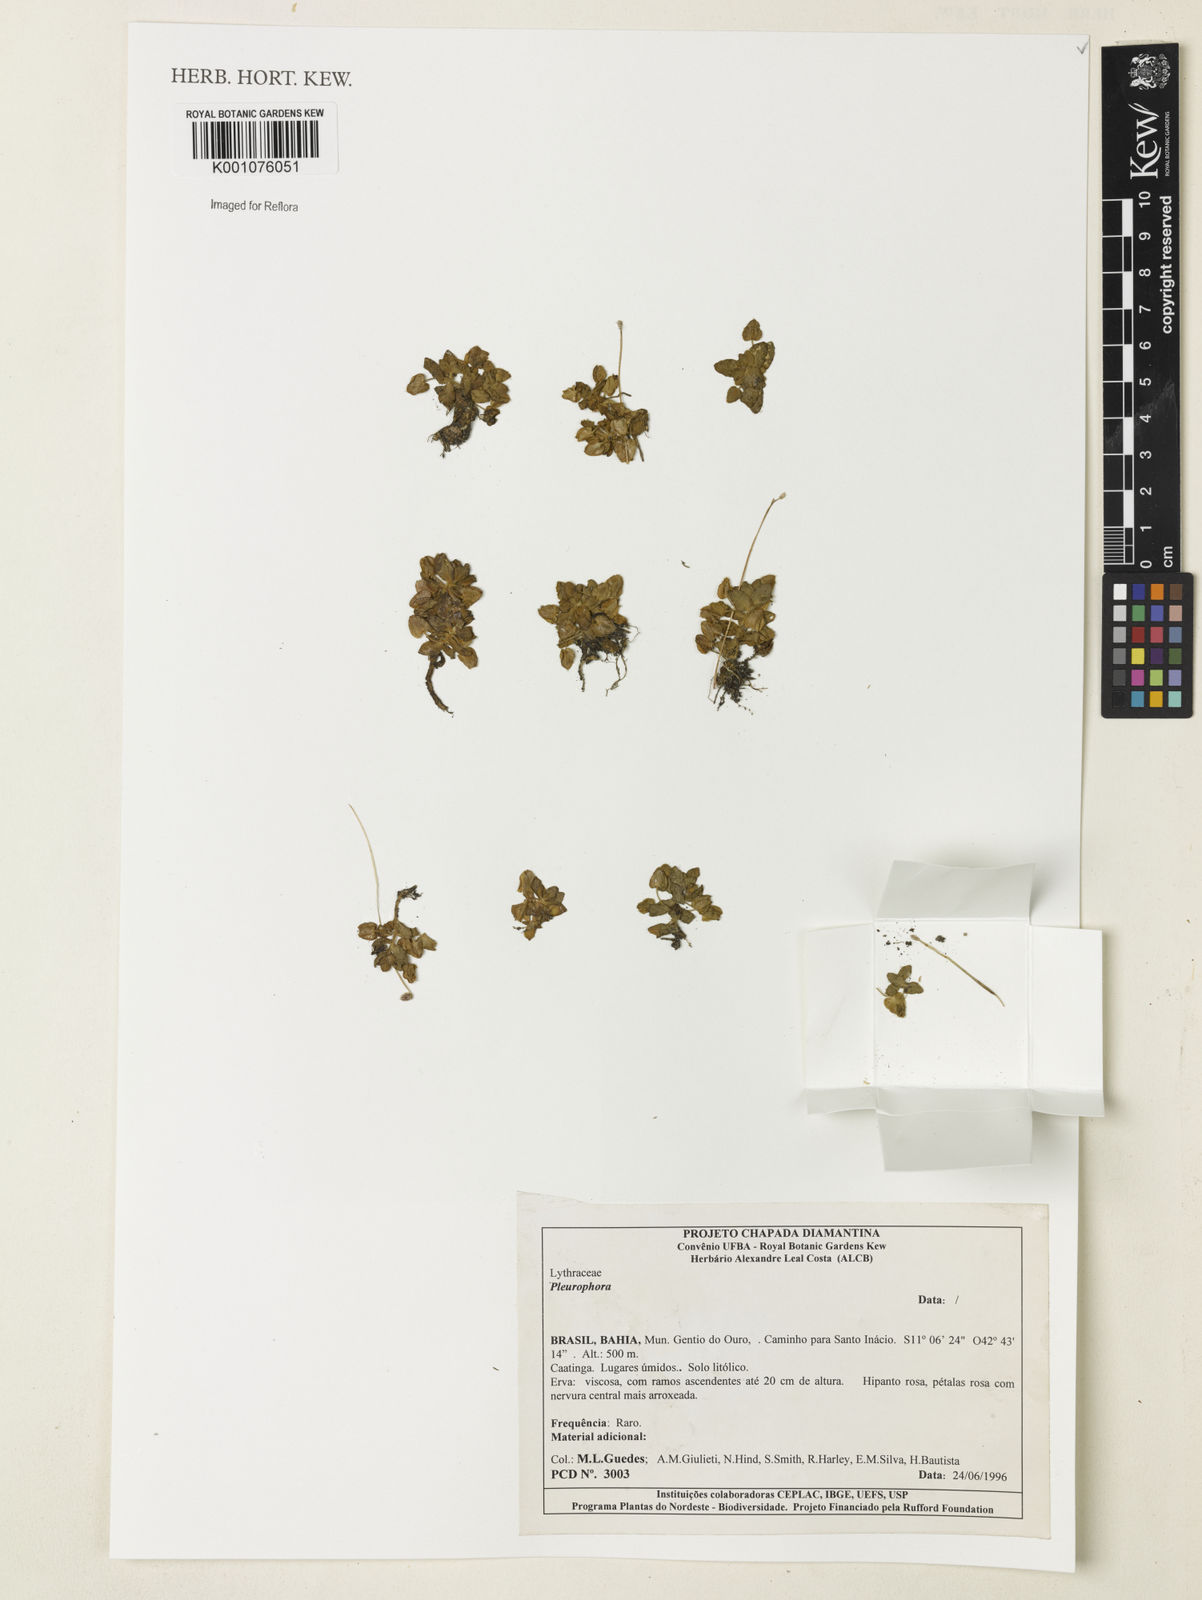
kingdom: Plantae
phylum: Tracheophyta
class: Magnoliopsida
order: Myrtales
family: Lythraceae
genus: Pleurophora
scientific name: Pleurophora
